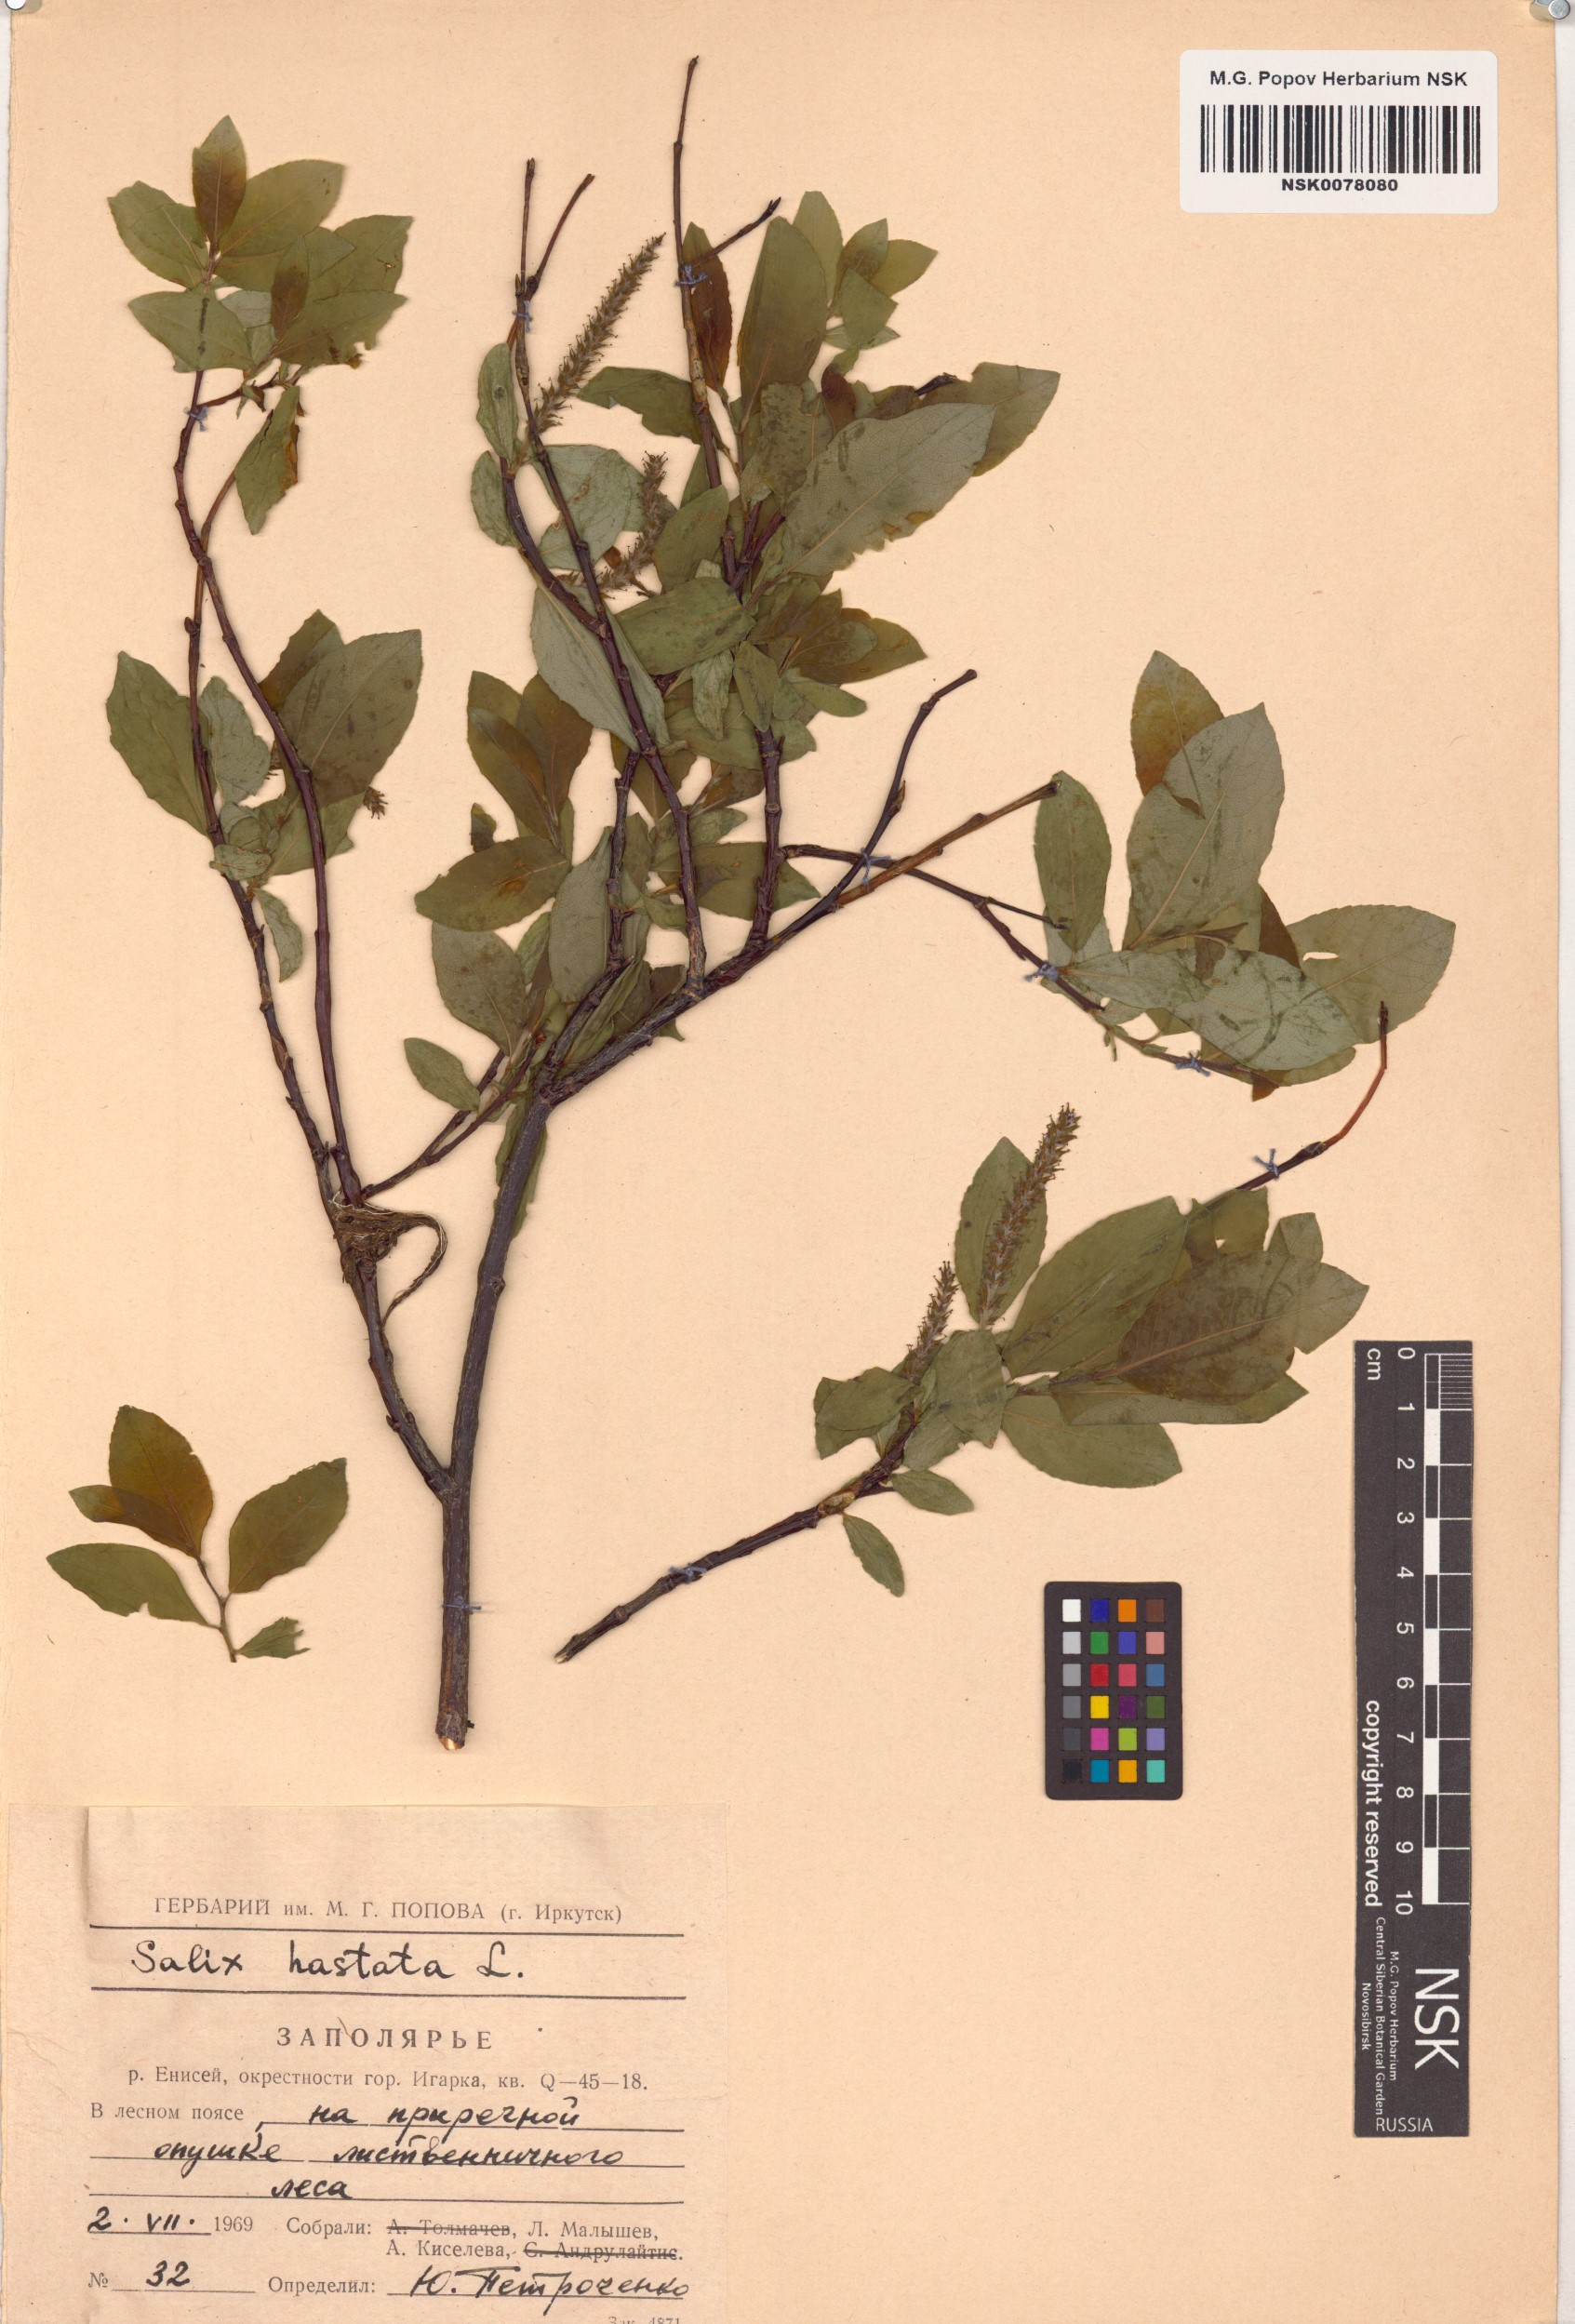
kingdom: Plantae
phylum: Tracheophyta
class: Magnoliopsida
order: Malpighiales
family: Salicaceae
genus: Salix
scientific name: Salix hastata
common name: Halberd willow
